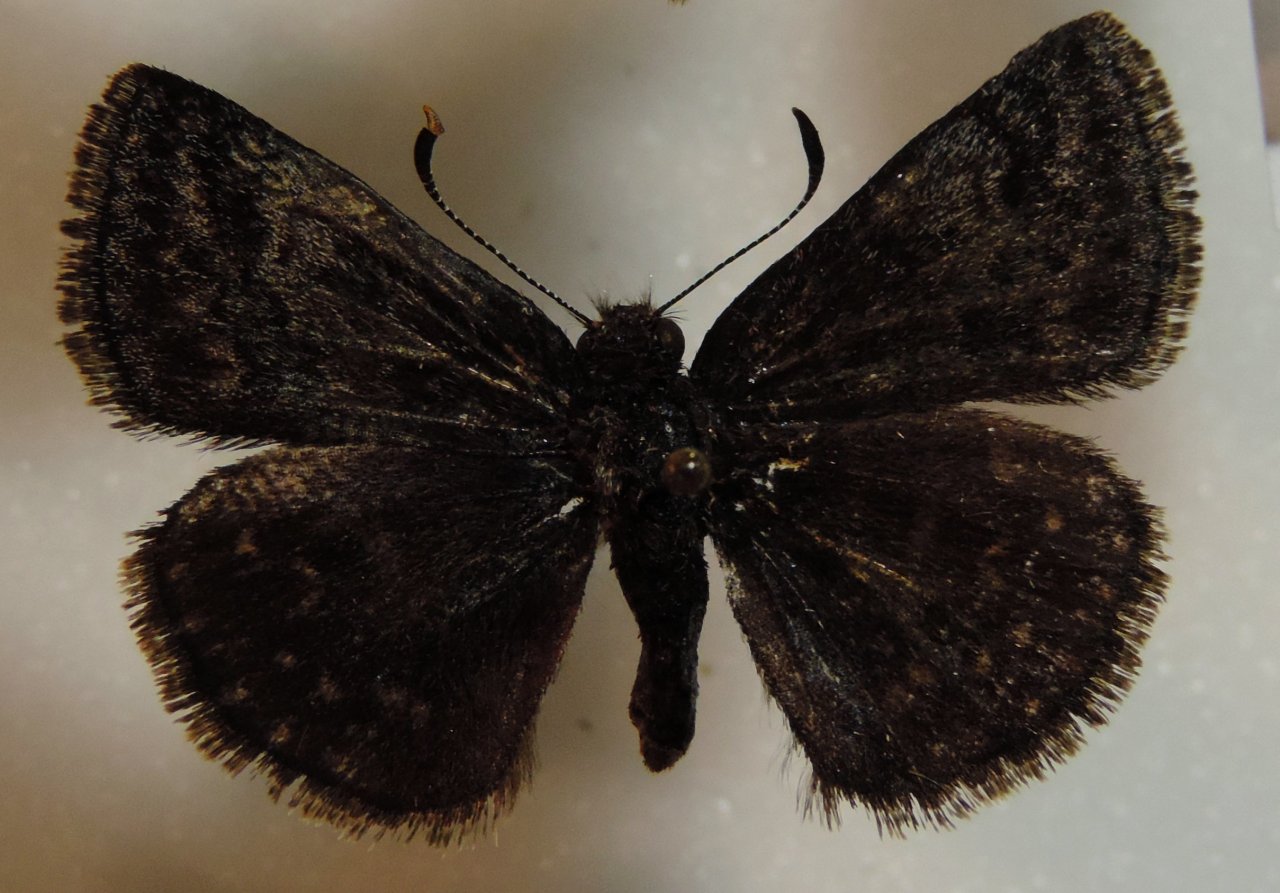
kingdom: Animalia
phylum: Arthropoda
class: Insecta
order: Lepidoptera
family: Hesperiidae
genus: Erynnis
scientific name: Erynnis
